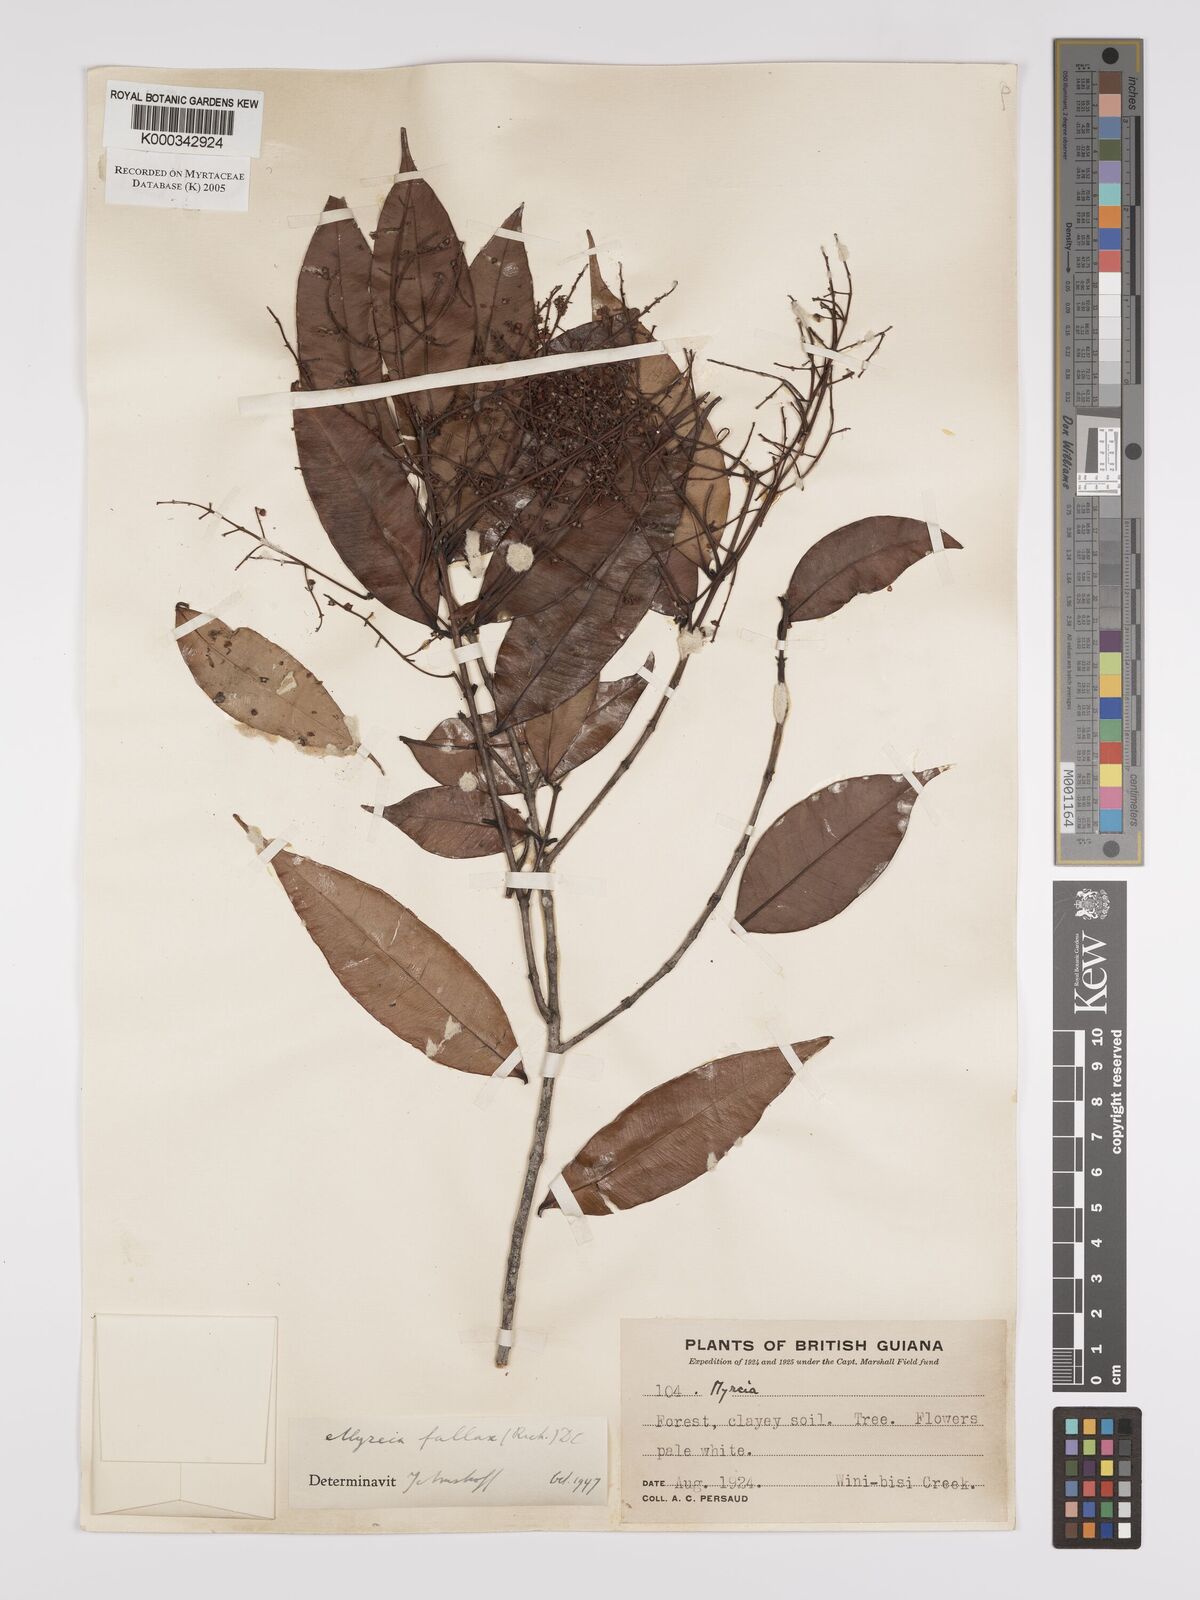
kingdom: Plantae
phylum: Tracheophyta
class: Magnoliopsida
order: Myrtales
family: Myrtaceae
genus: Myrcia
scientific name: Myrcia splendens
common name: Surinam cherry
